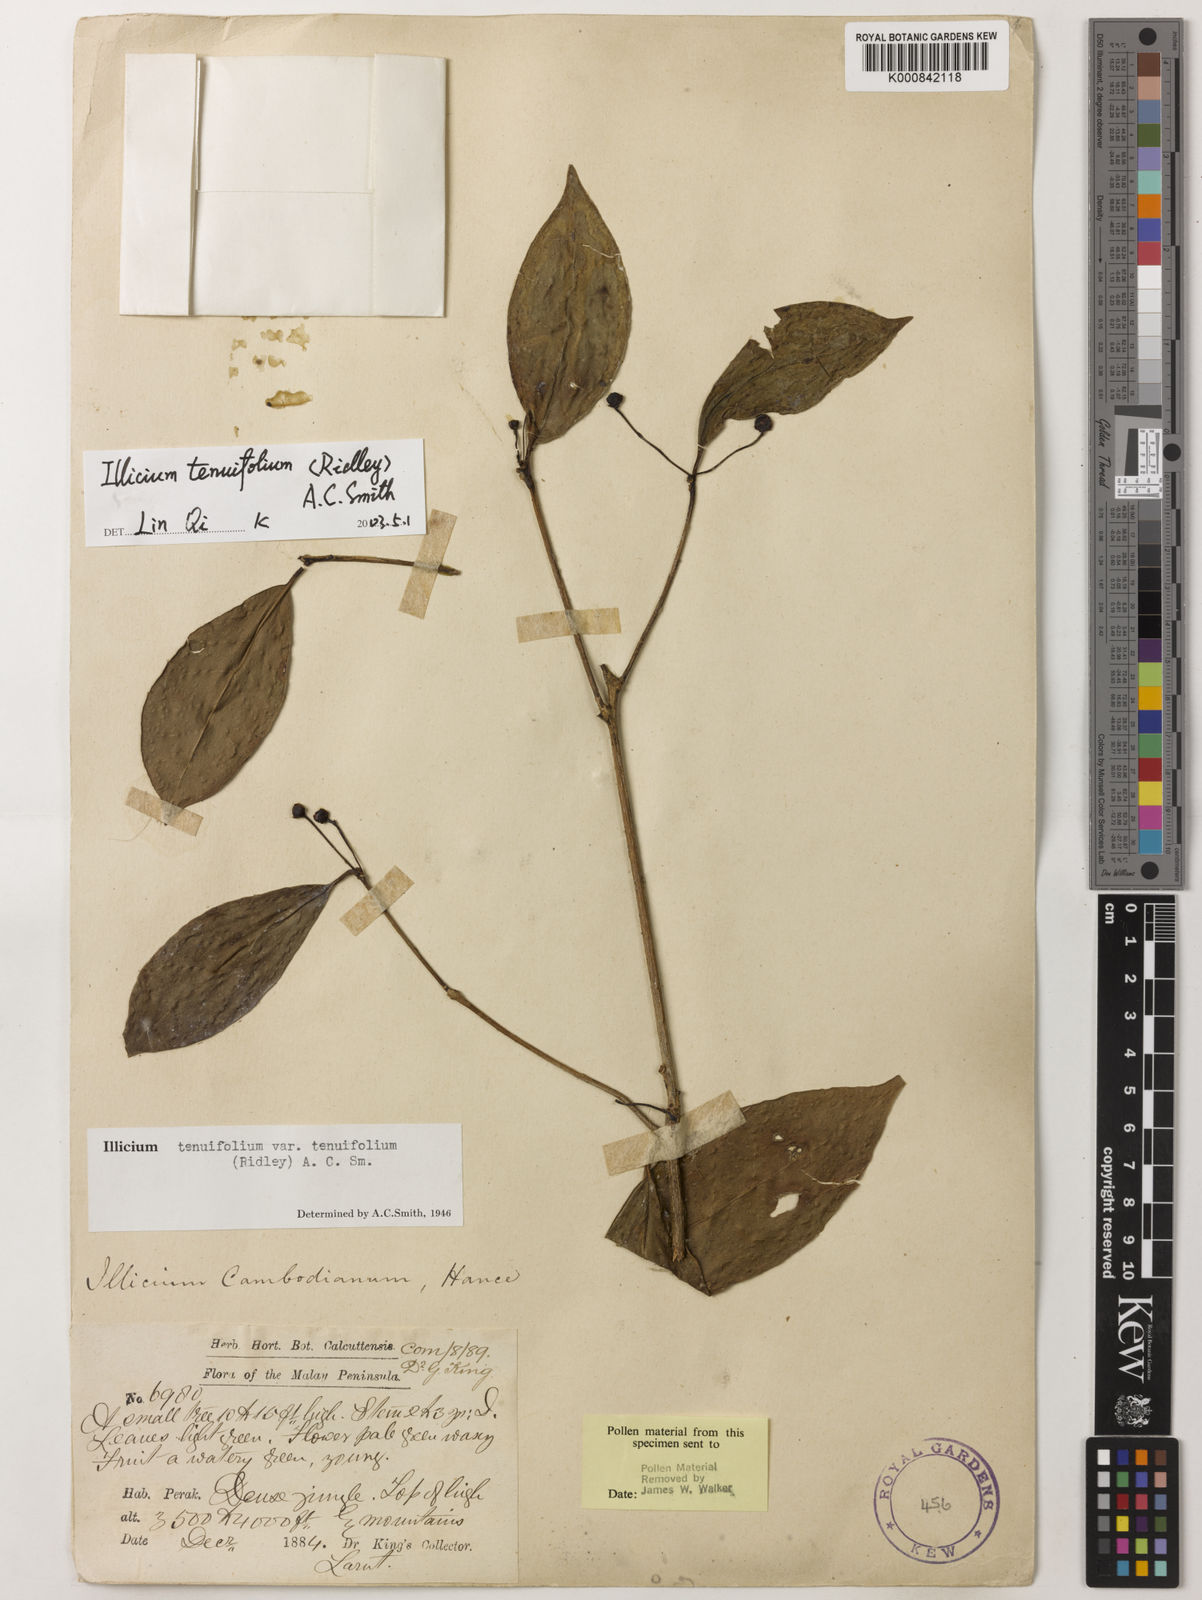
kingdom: Plantae
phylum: Tracheophyta
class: Magnoliopsida
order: Austrobaileyales
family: Schisandraceae
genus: Illicium
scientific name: Illicium tenuifolium
